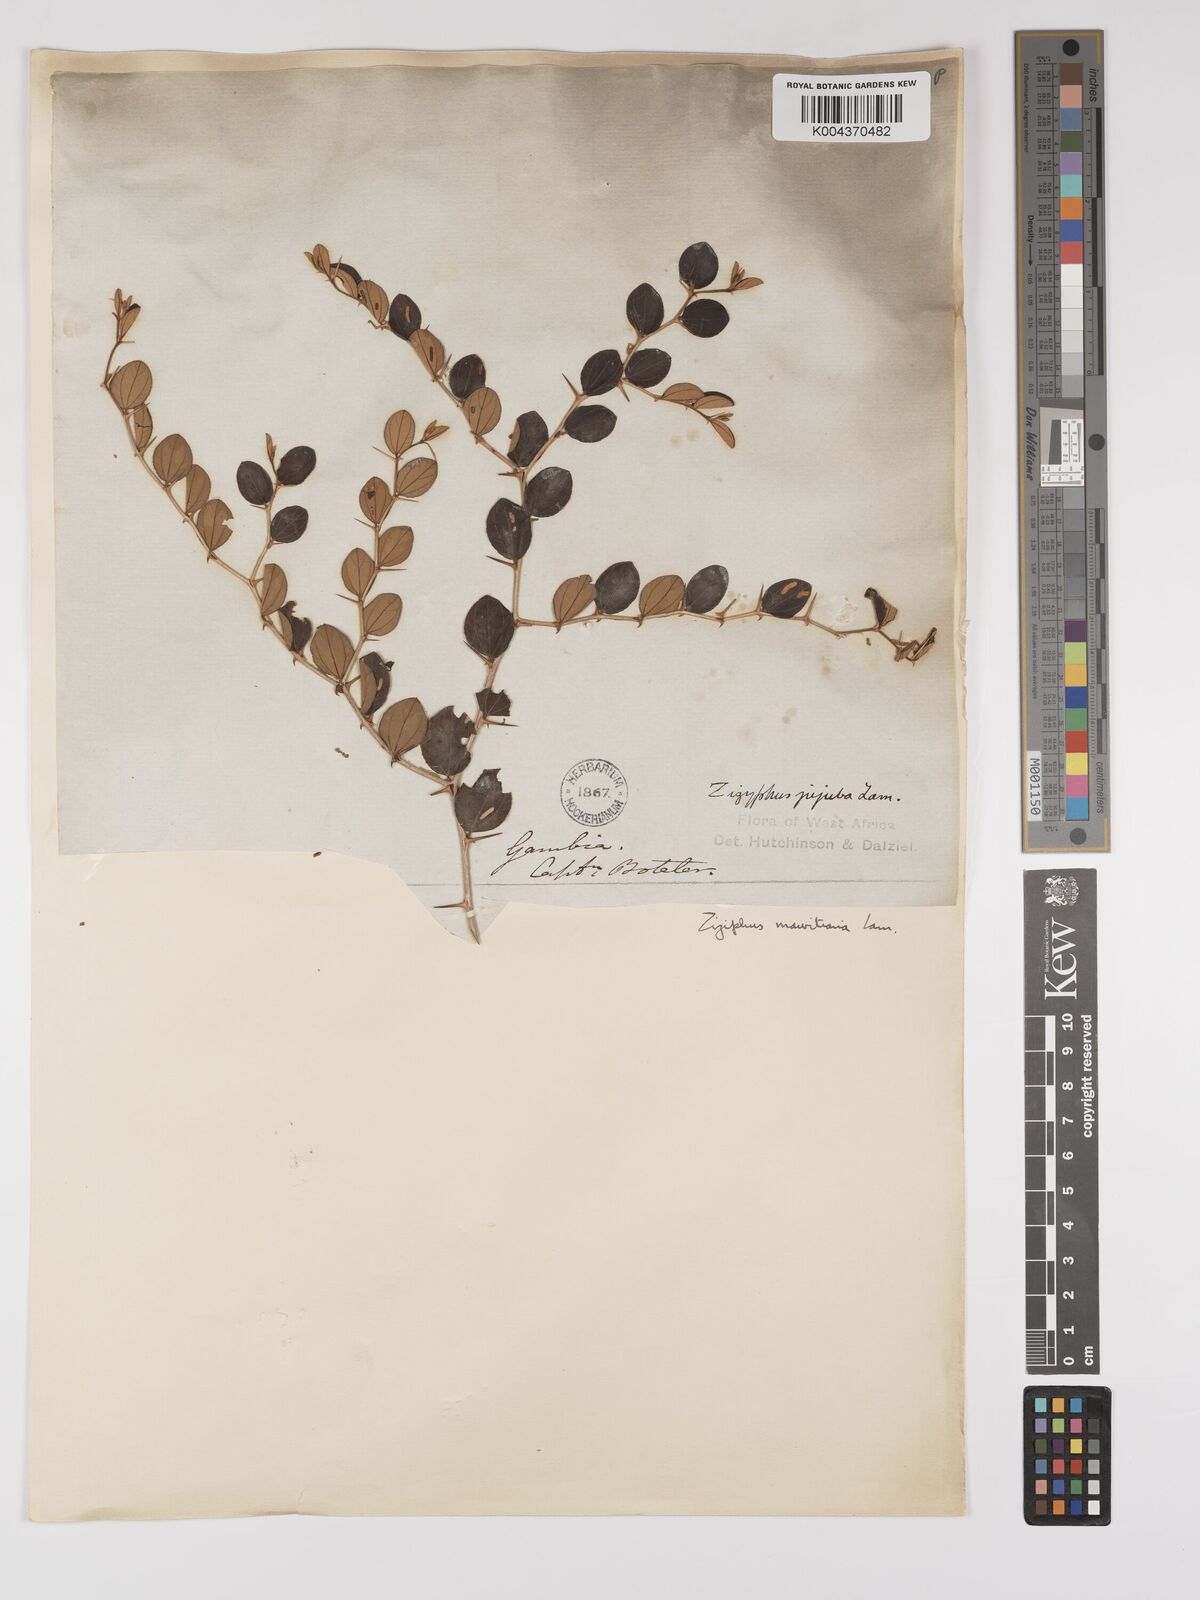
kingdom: Plantae
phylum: Tracheophyta
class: Magnoliopsida
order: Rosales
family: Rhamnaceae
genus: Ziziphus
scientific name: Ziziphus mauritiana
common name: Indian jujube
